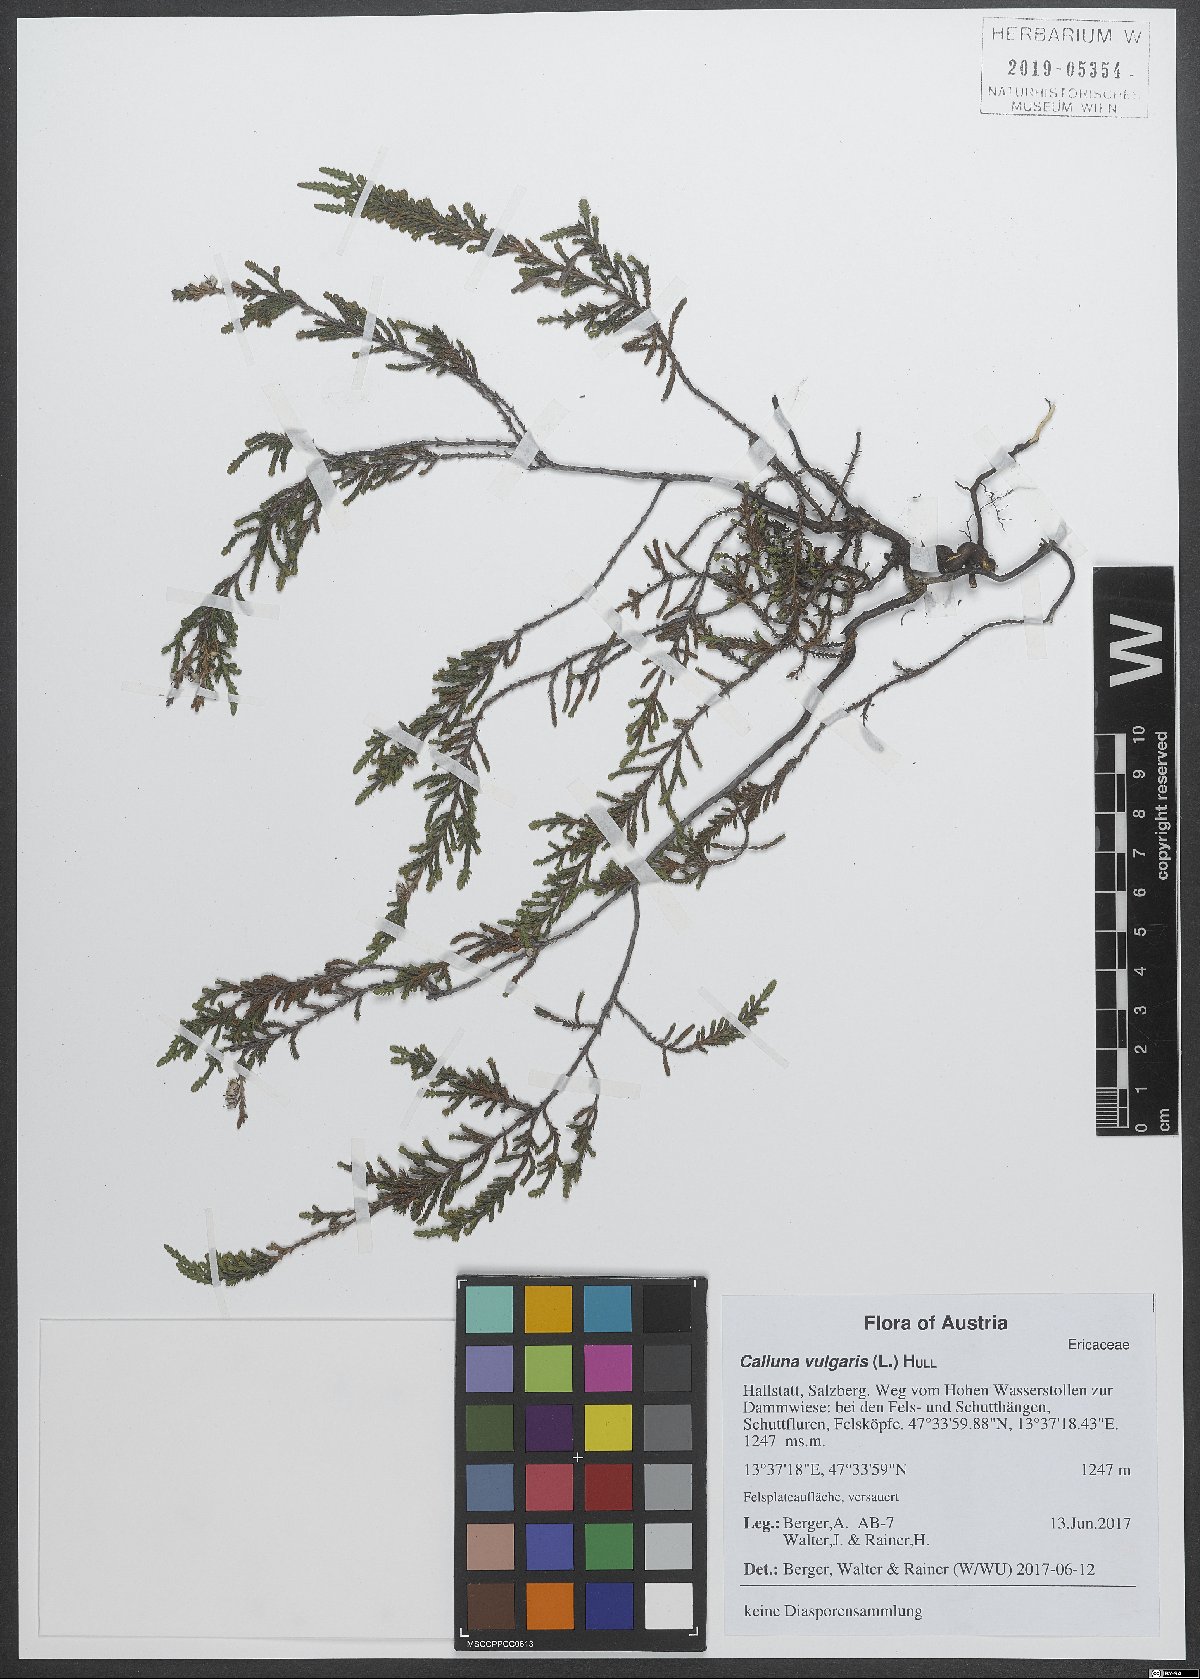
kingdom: Plantae
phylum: Tracheophyta
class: Magnoliopsida
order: Ericales
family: Ericaceae
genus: Calluna
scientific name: Calluna vulgaris
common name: Heather
